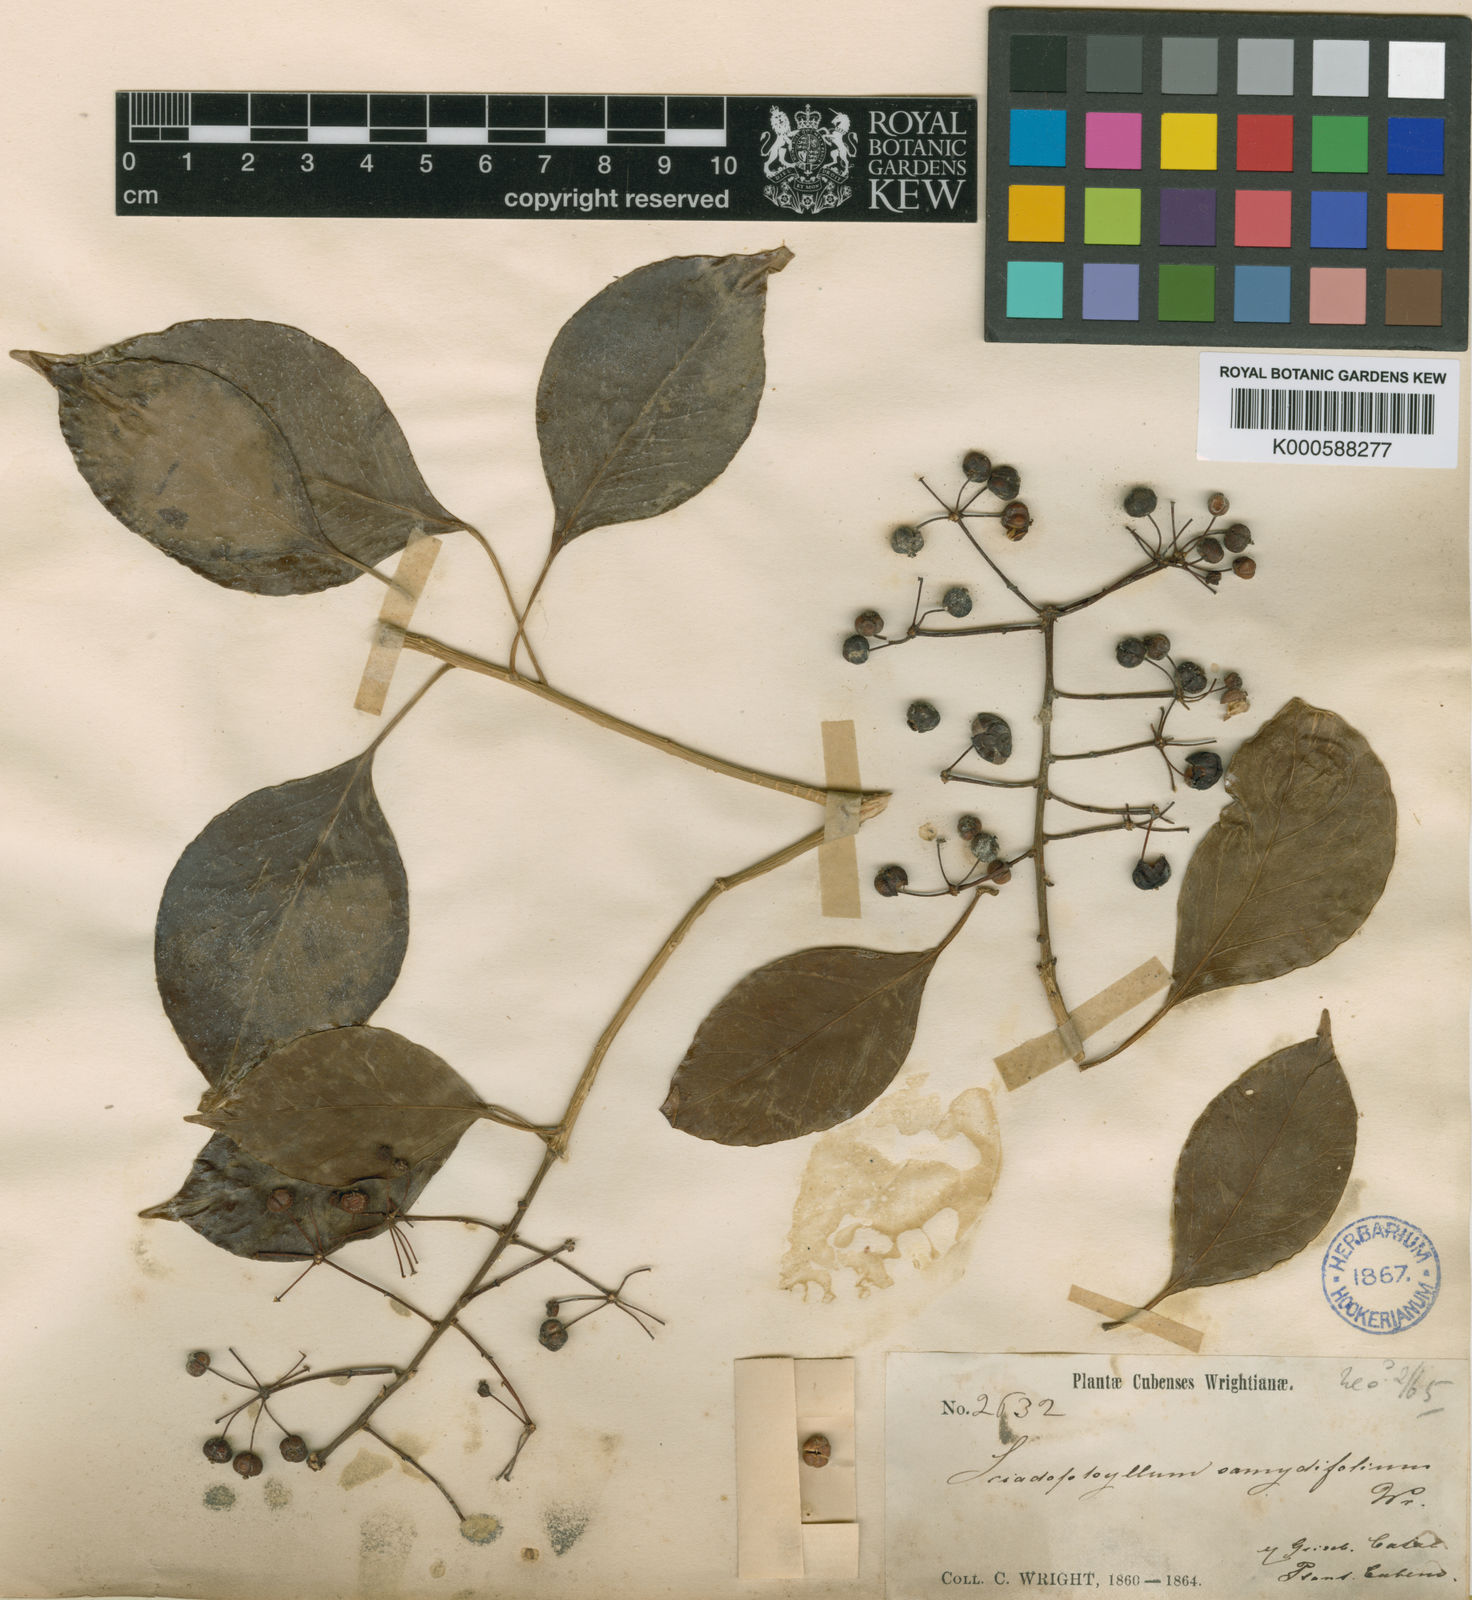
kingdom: Plantae
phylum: Tracheophyta
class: Magnoliopsida
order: Apiales
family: Araliaceae
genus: Dendropanax
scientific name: Dendropanax arboreus
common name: Potato-wood
